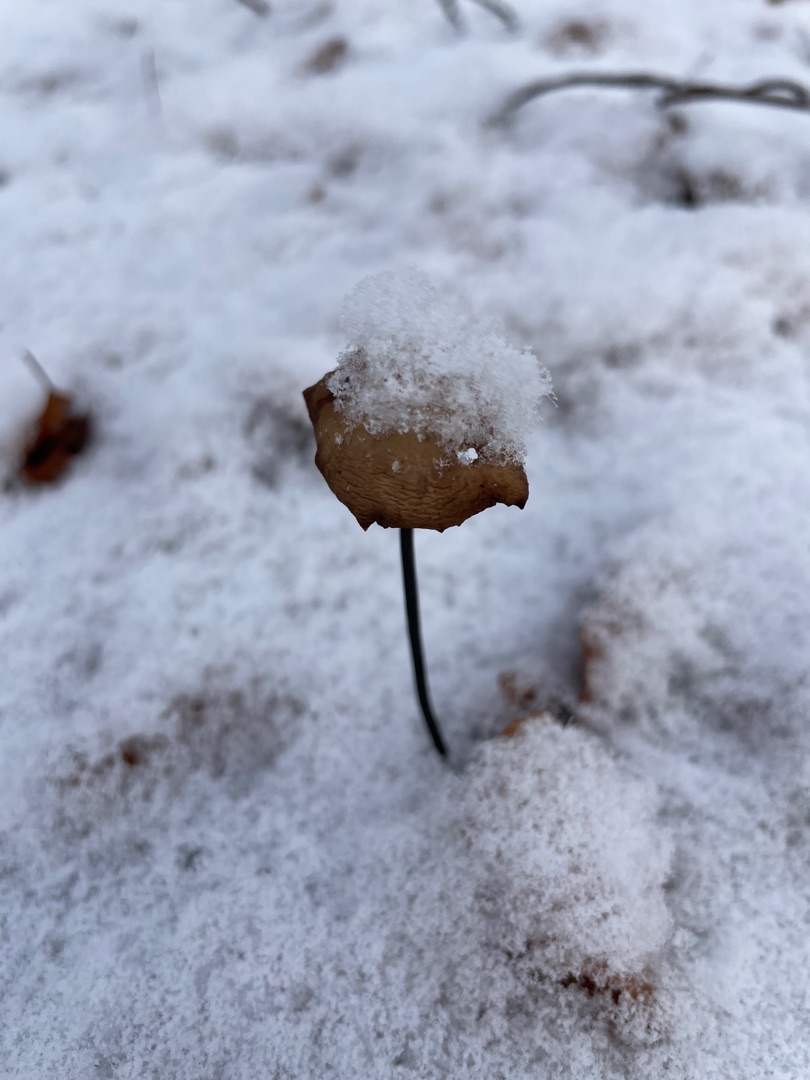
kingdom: Fungi
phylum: Basidiomycota
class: Agaricomycetes
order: Agaricales
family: Omphalotaceae
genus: Mycetinis
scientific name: Mycetinis alliaceus
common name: Stor løghat
